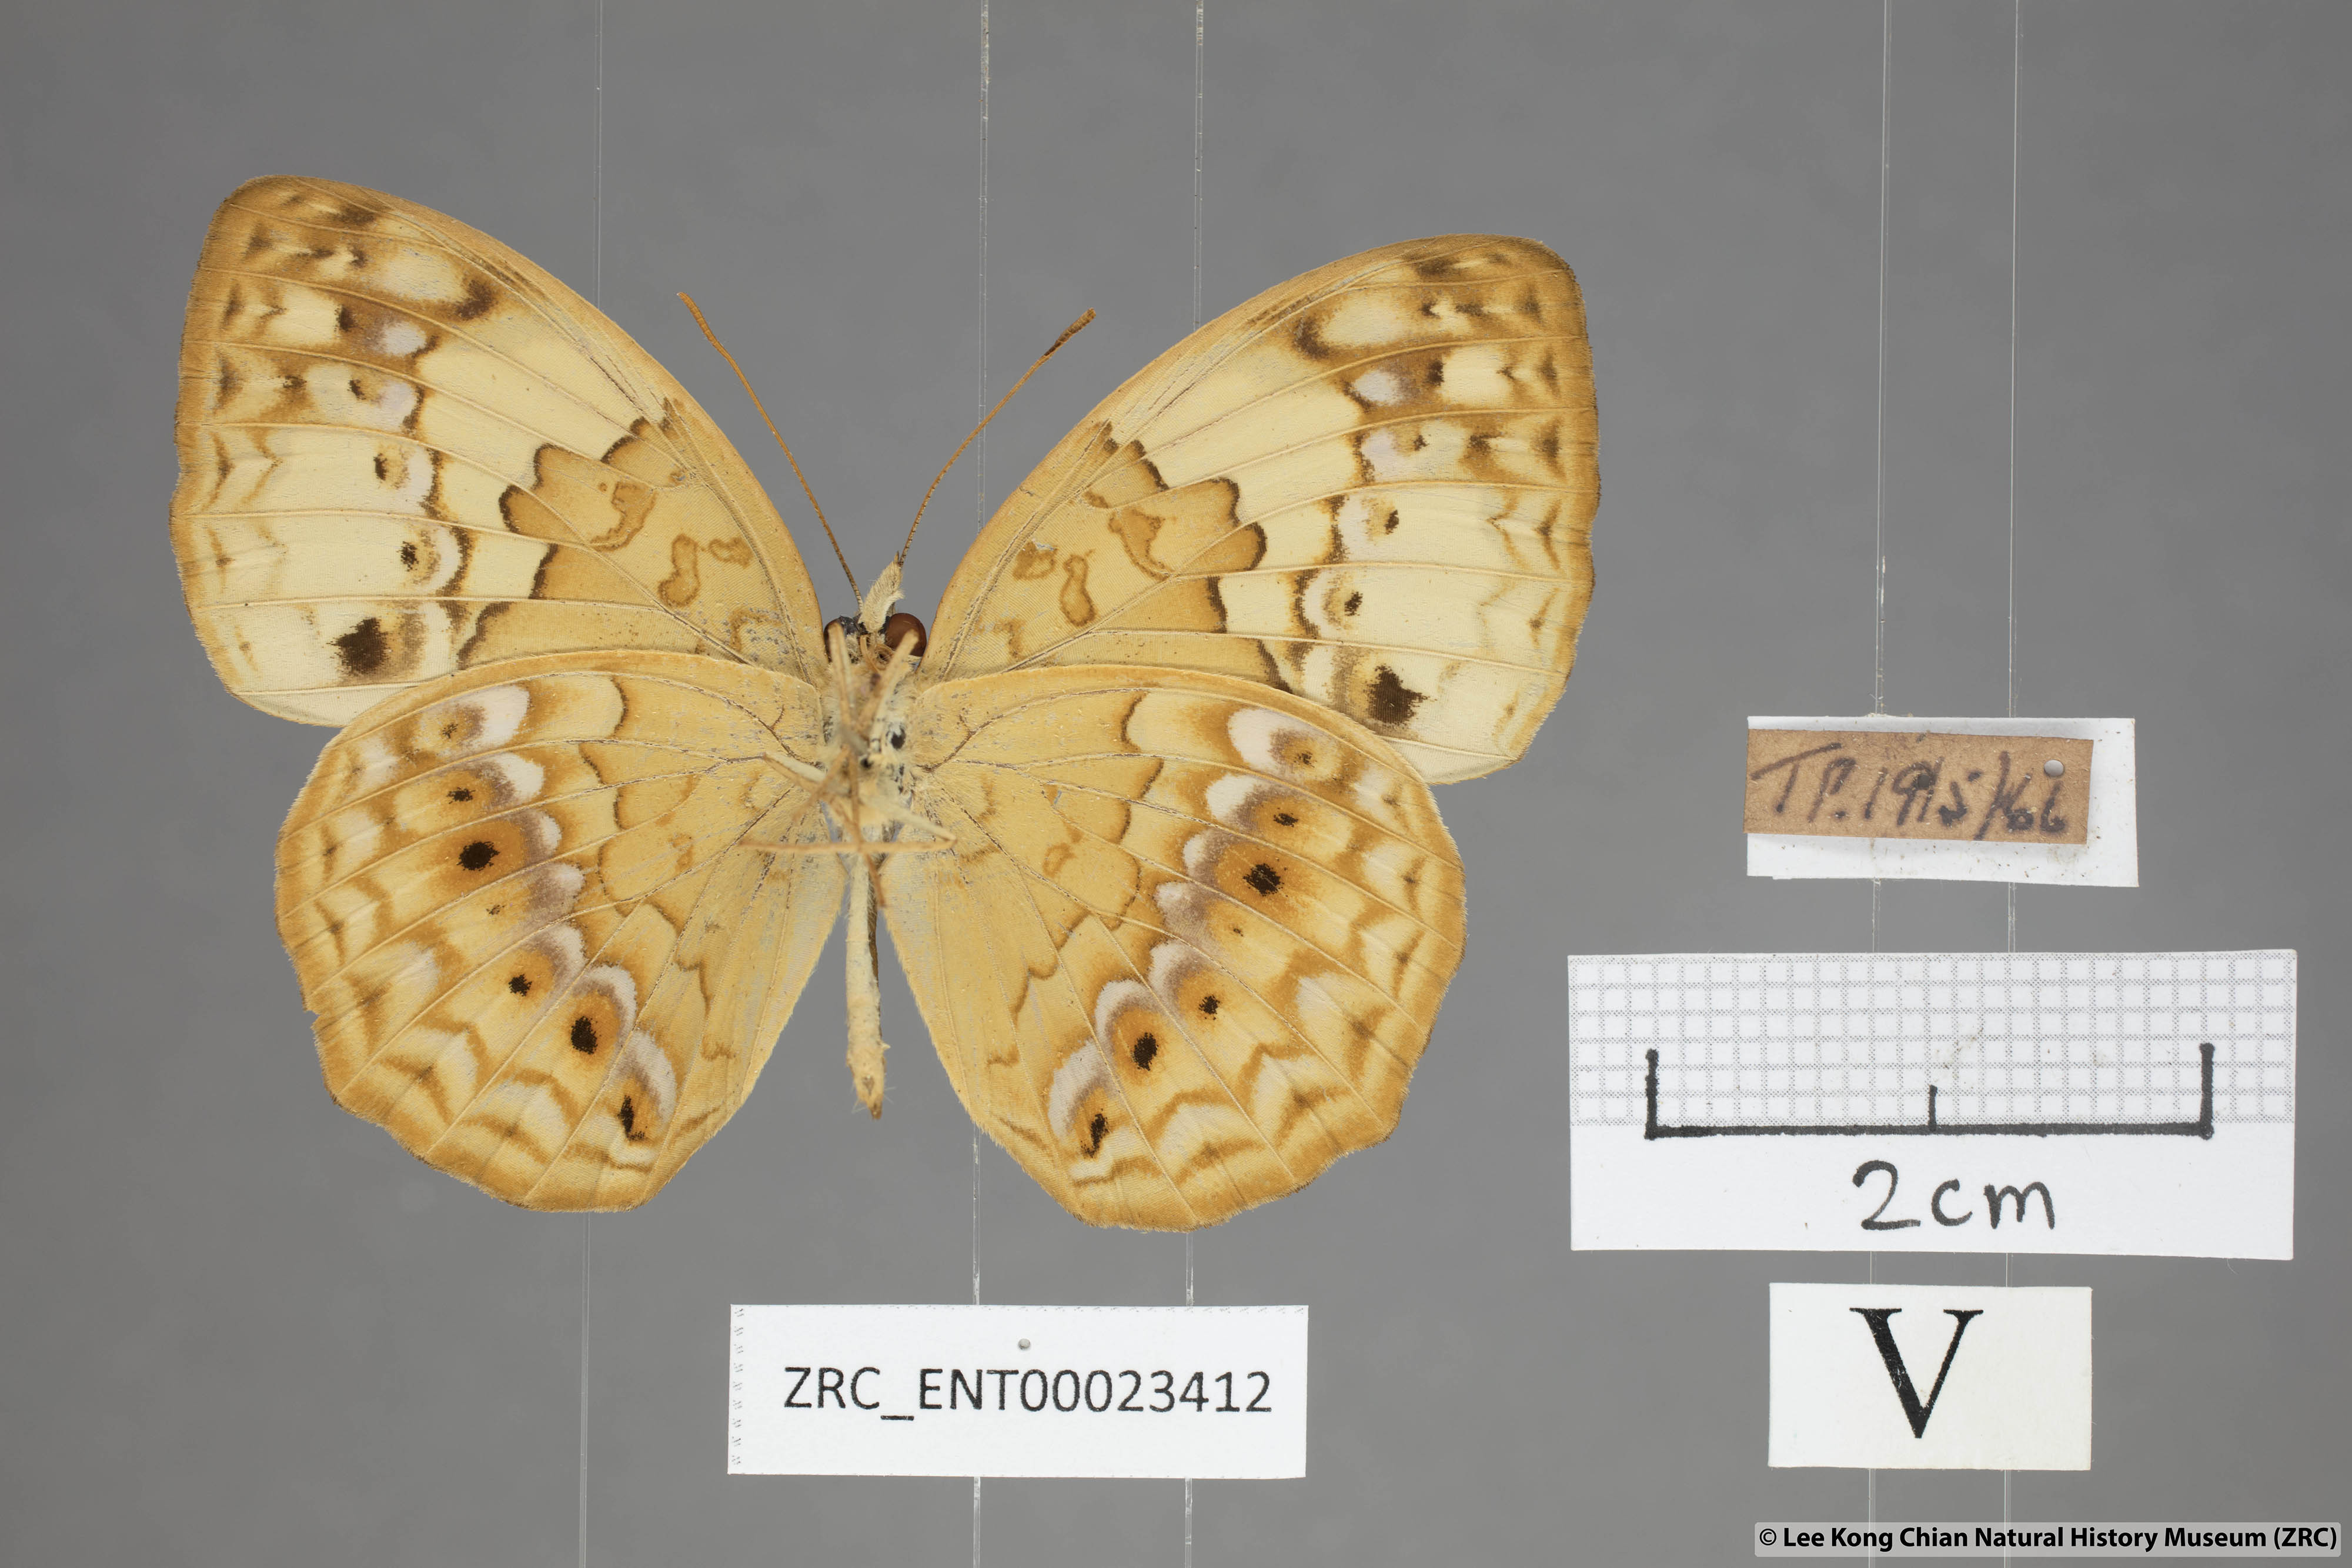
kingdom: Animalia
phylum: Arthropoda
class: Insecta
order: Lepidoptera
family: Nymphalidae
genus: Cupha
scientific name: Cupha erymanthis
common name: Rustic
